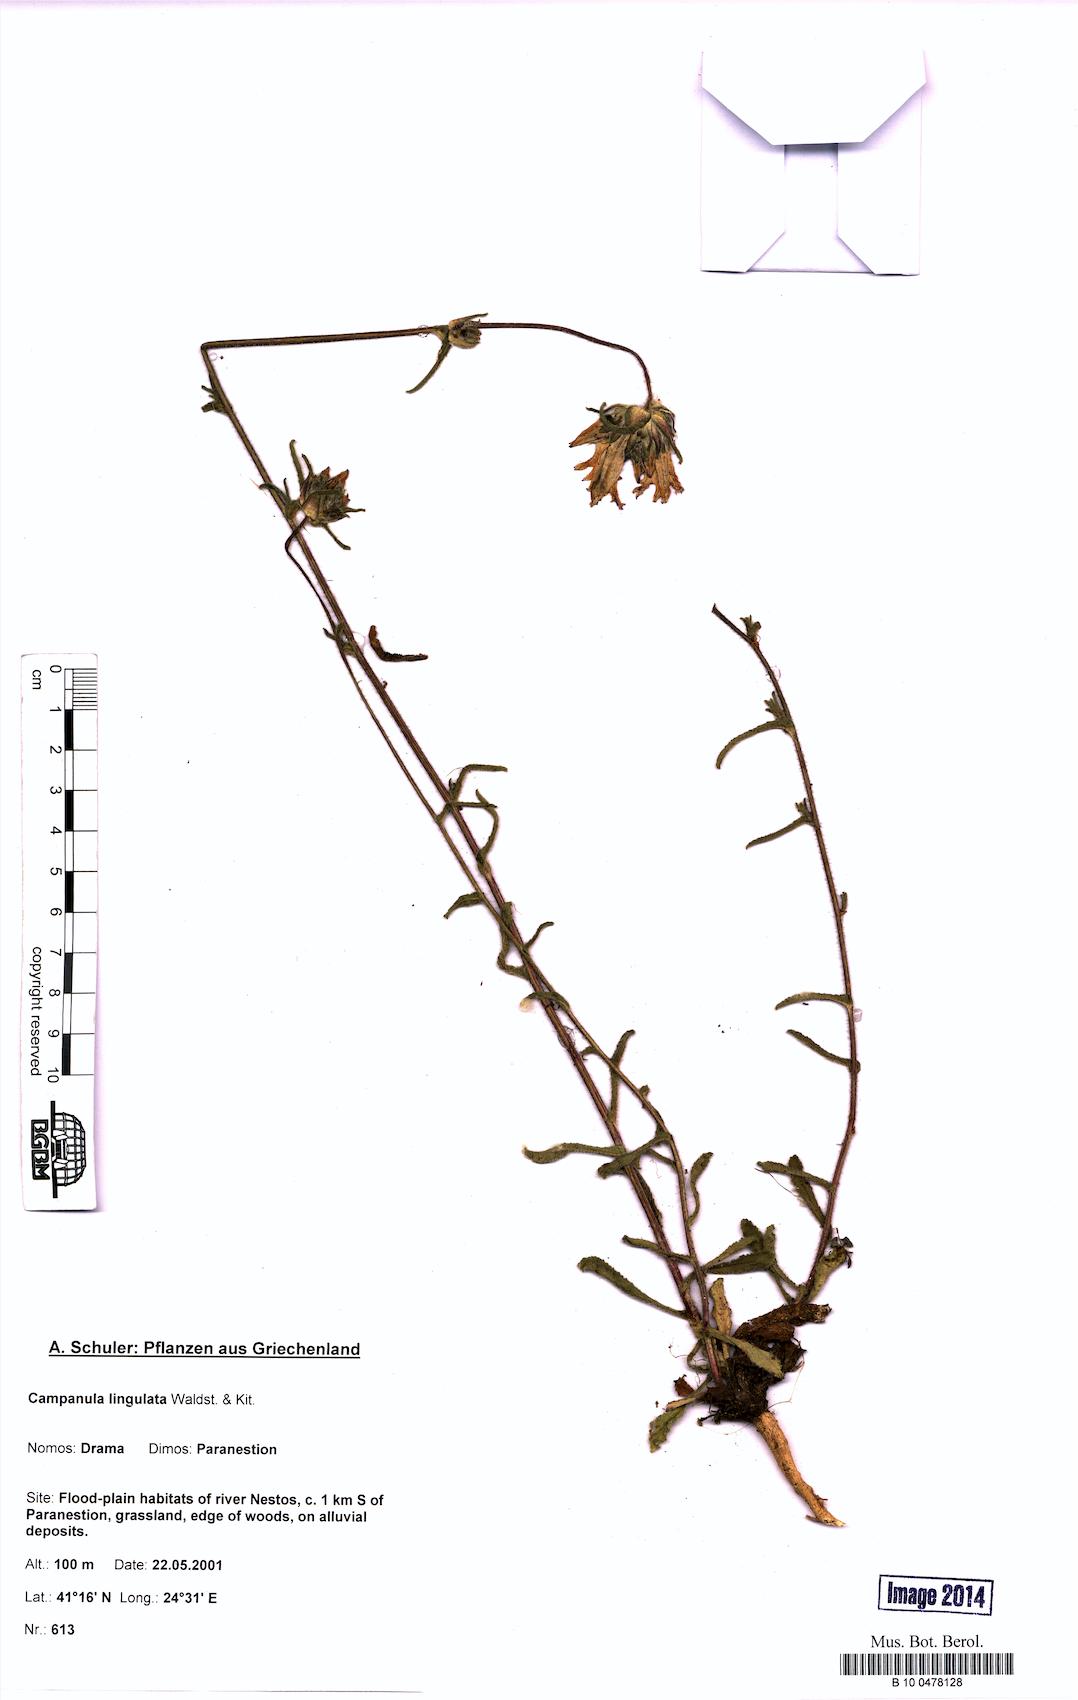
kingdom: Plantae
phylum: Tracheophyta
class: Magnoliopsida
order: Asterales
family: Campanulaceae
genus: Campanula
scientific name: Campanula lingulata
